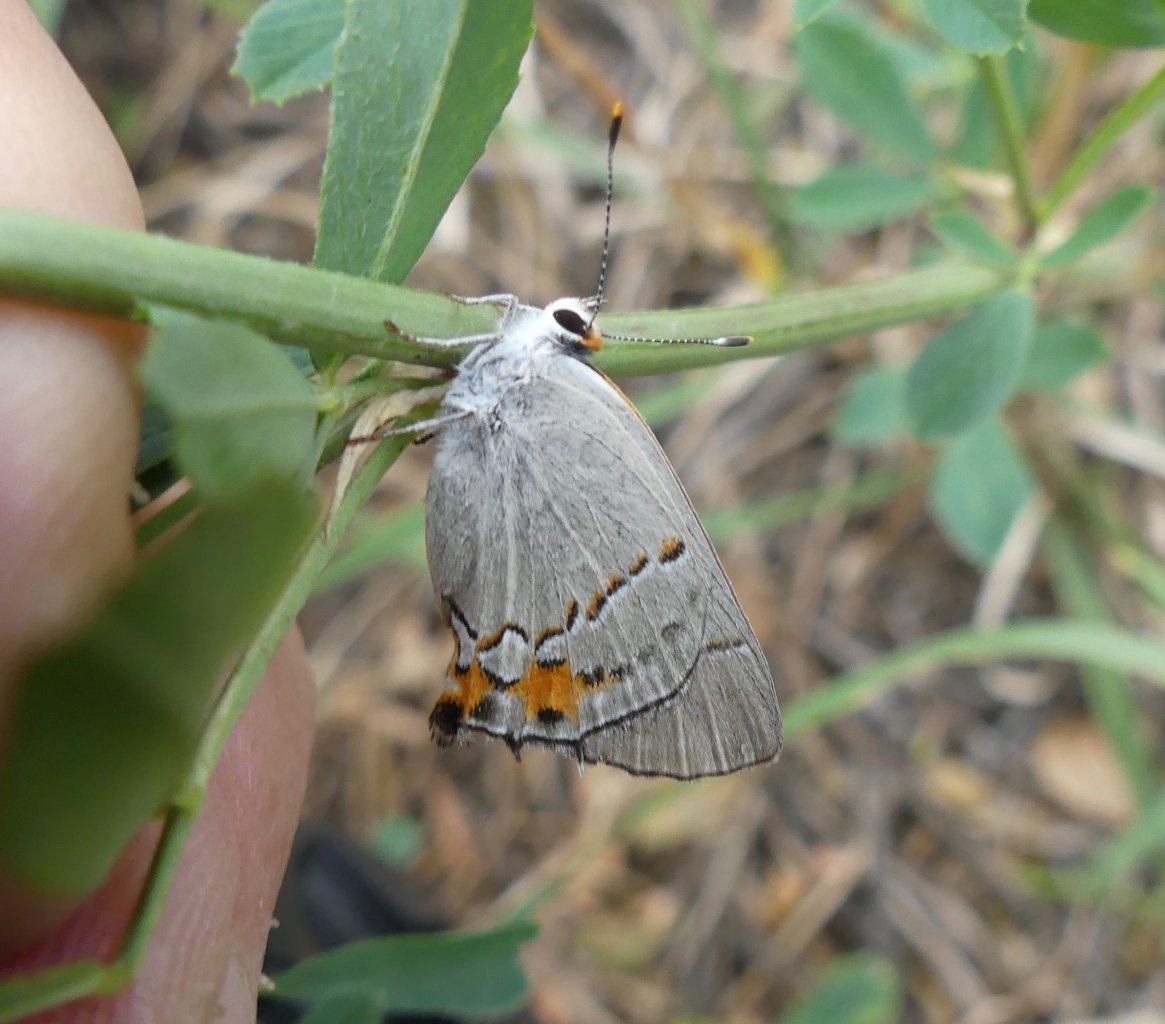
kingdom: Animalia
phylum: Arthropoda
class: Insecta
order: Lepidoptera
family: Lycaenidae
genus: Strymon
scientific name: Strymon melinus
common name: Gray Hairstreak
